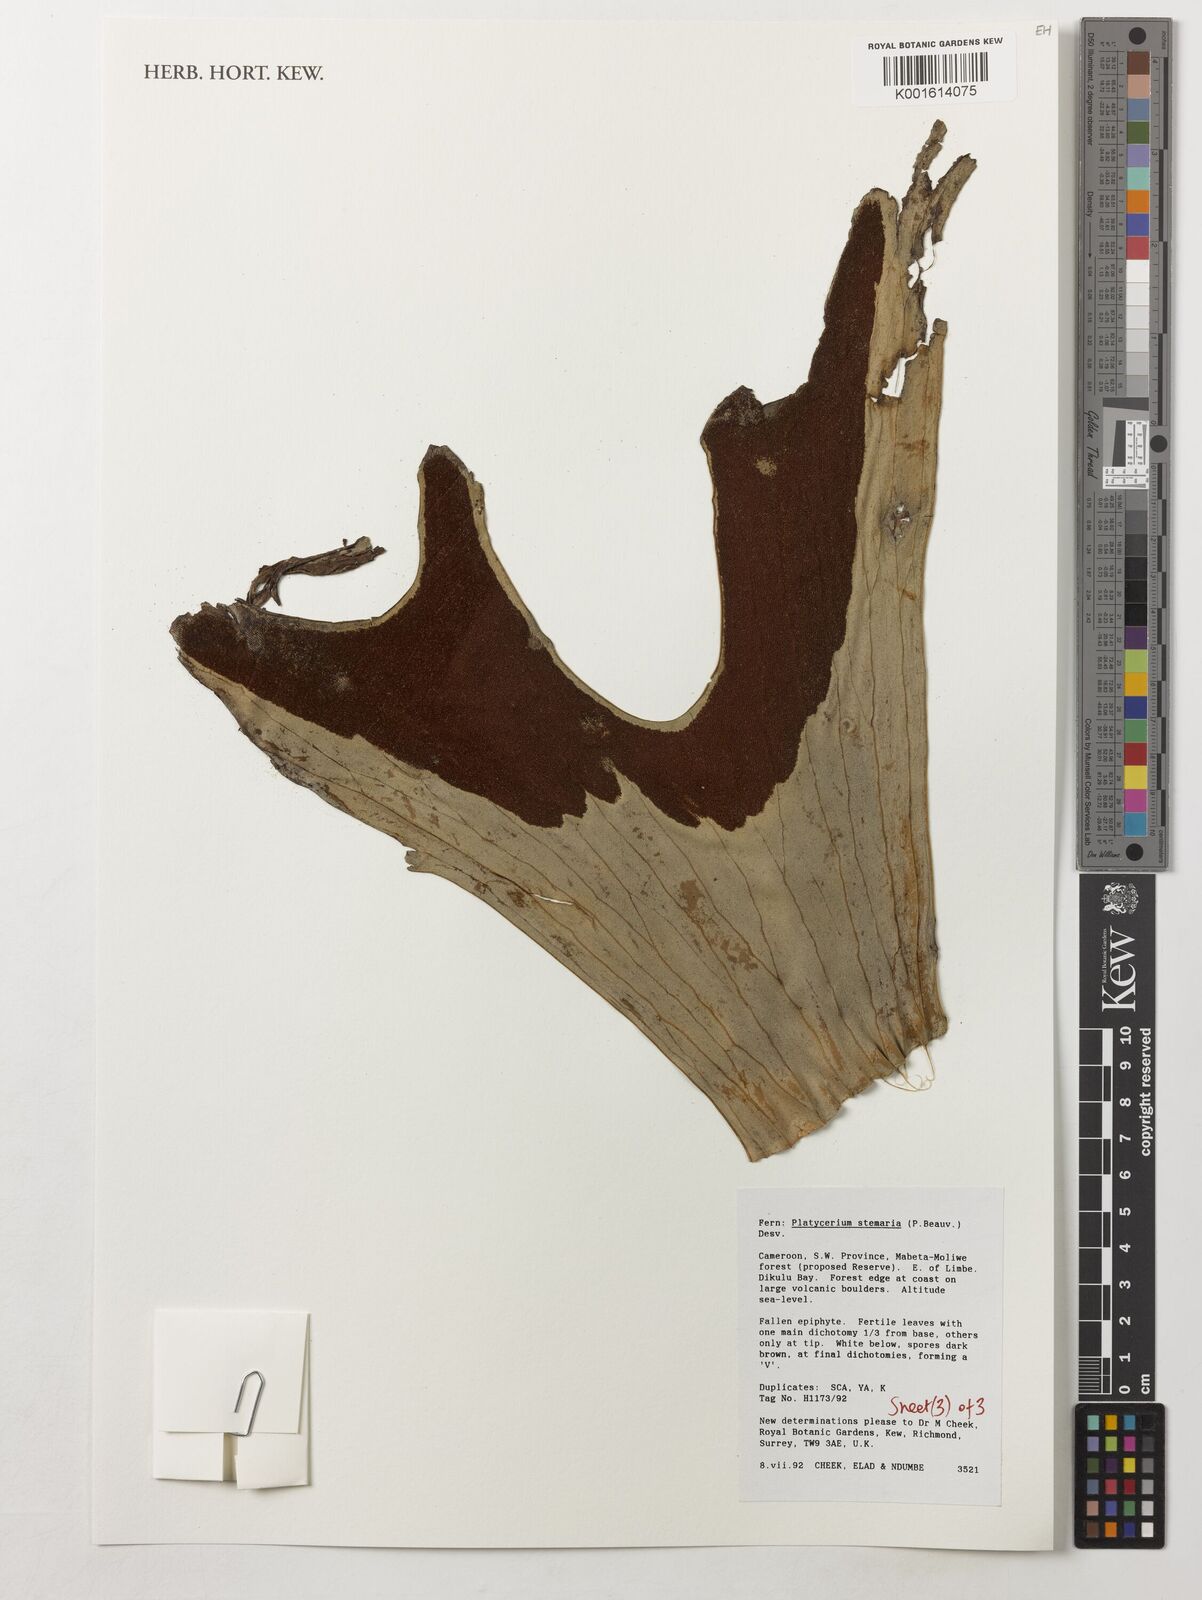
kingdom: Plantae
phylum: Tracheophyta
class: Polypodiopsida
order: Polypodiales
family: Polypodiaceae
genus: Platycerium
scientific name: Platycerium stemaria
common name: Triangular staghorn fern
